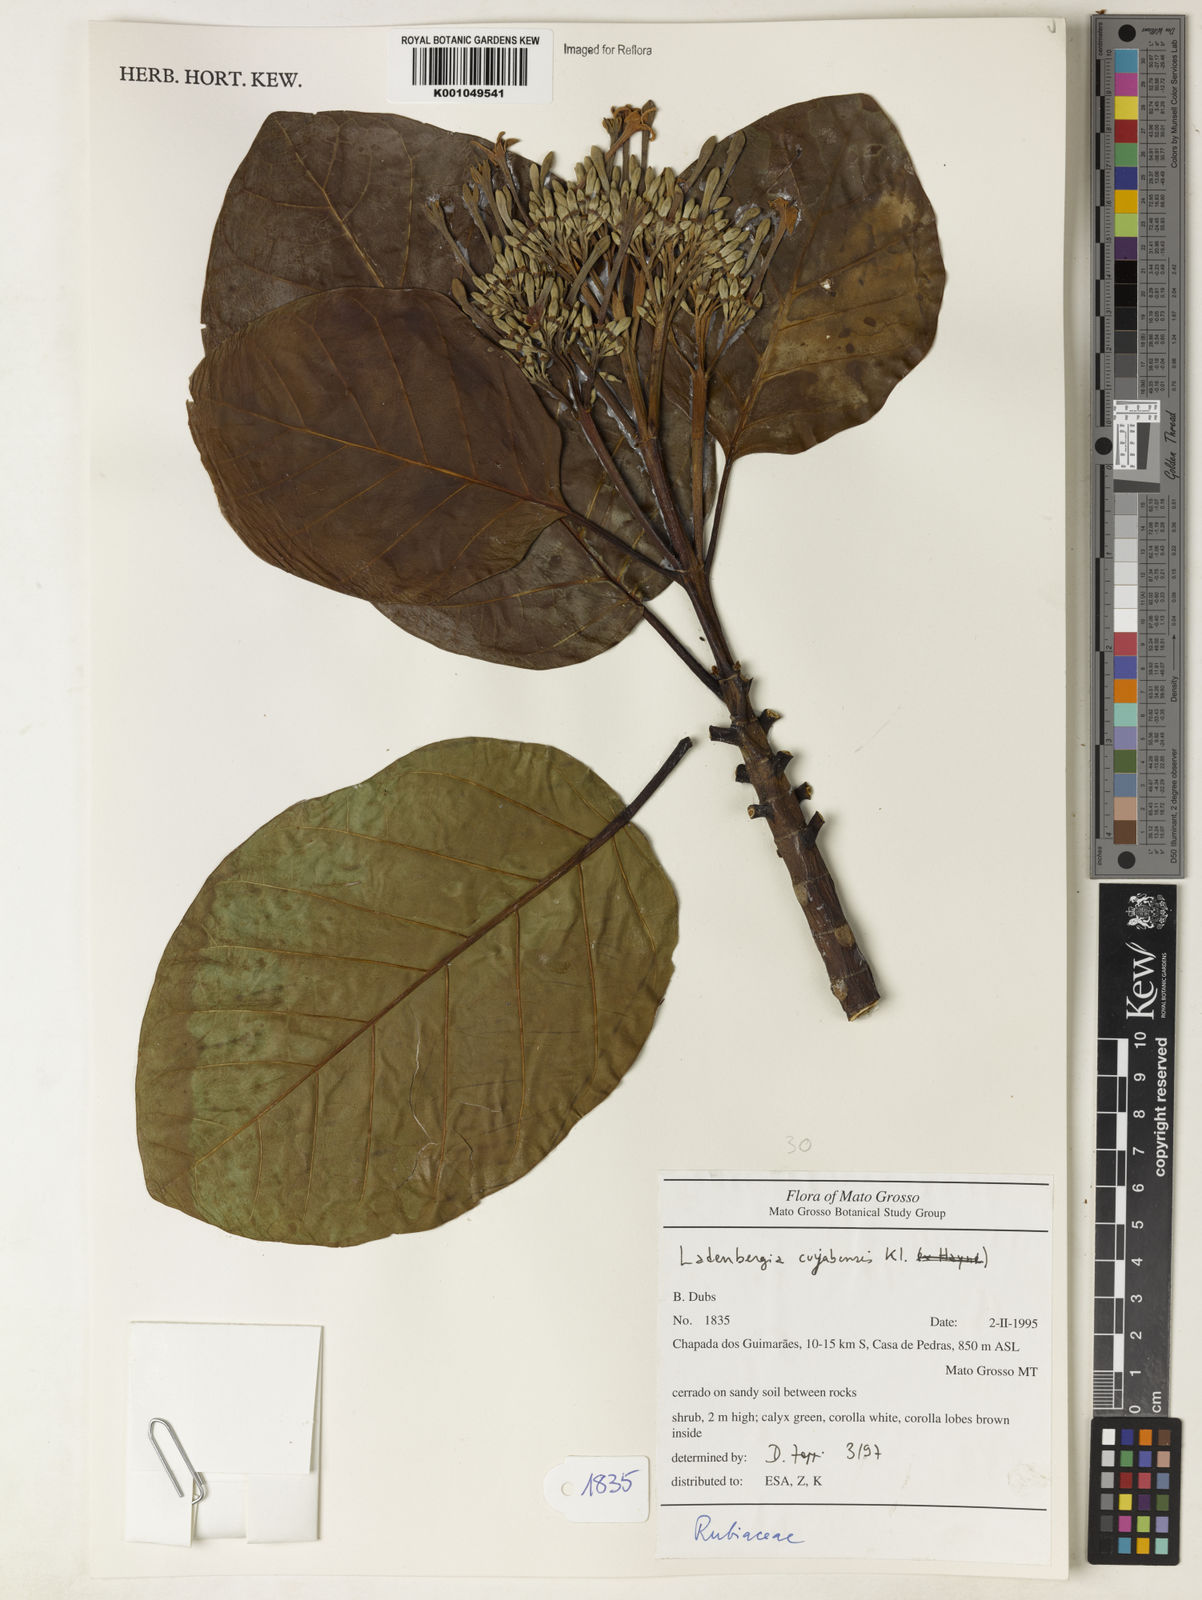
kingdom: Plantae
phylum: Tracheophyta
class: Magnoliopsida
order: Gentianales
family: Rubiaceae
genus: Ladenbergia
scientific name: Ladenbergia cujabensis
